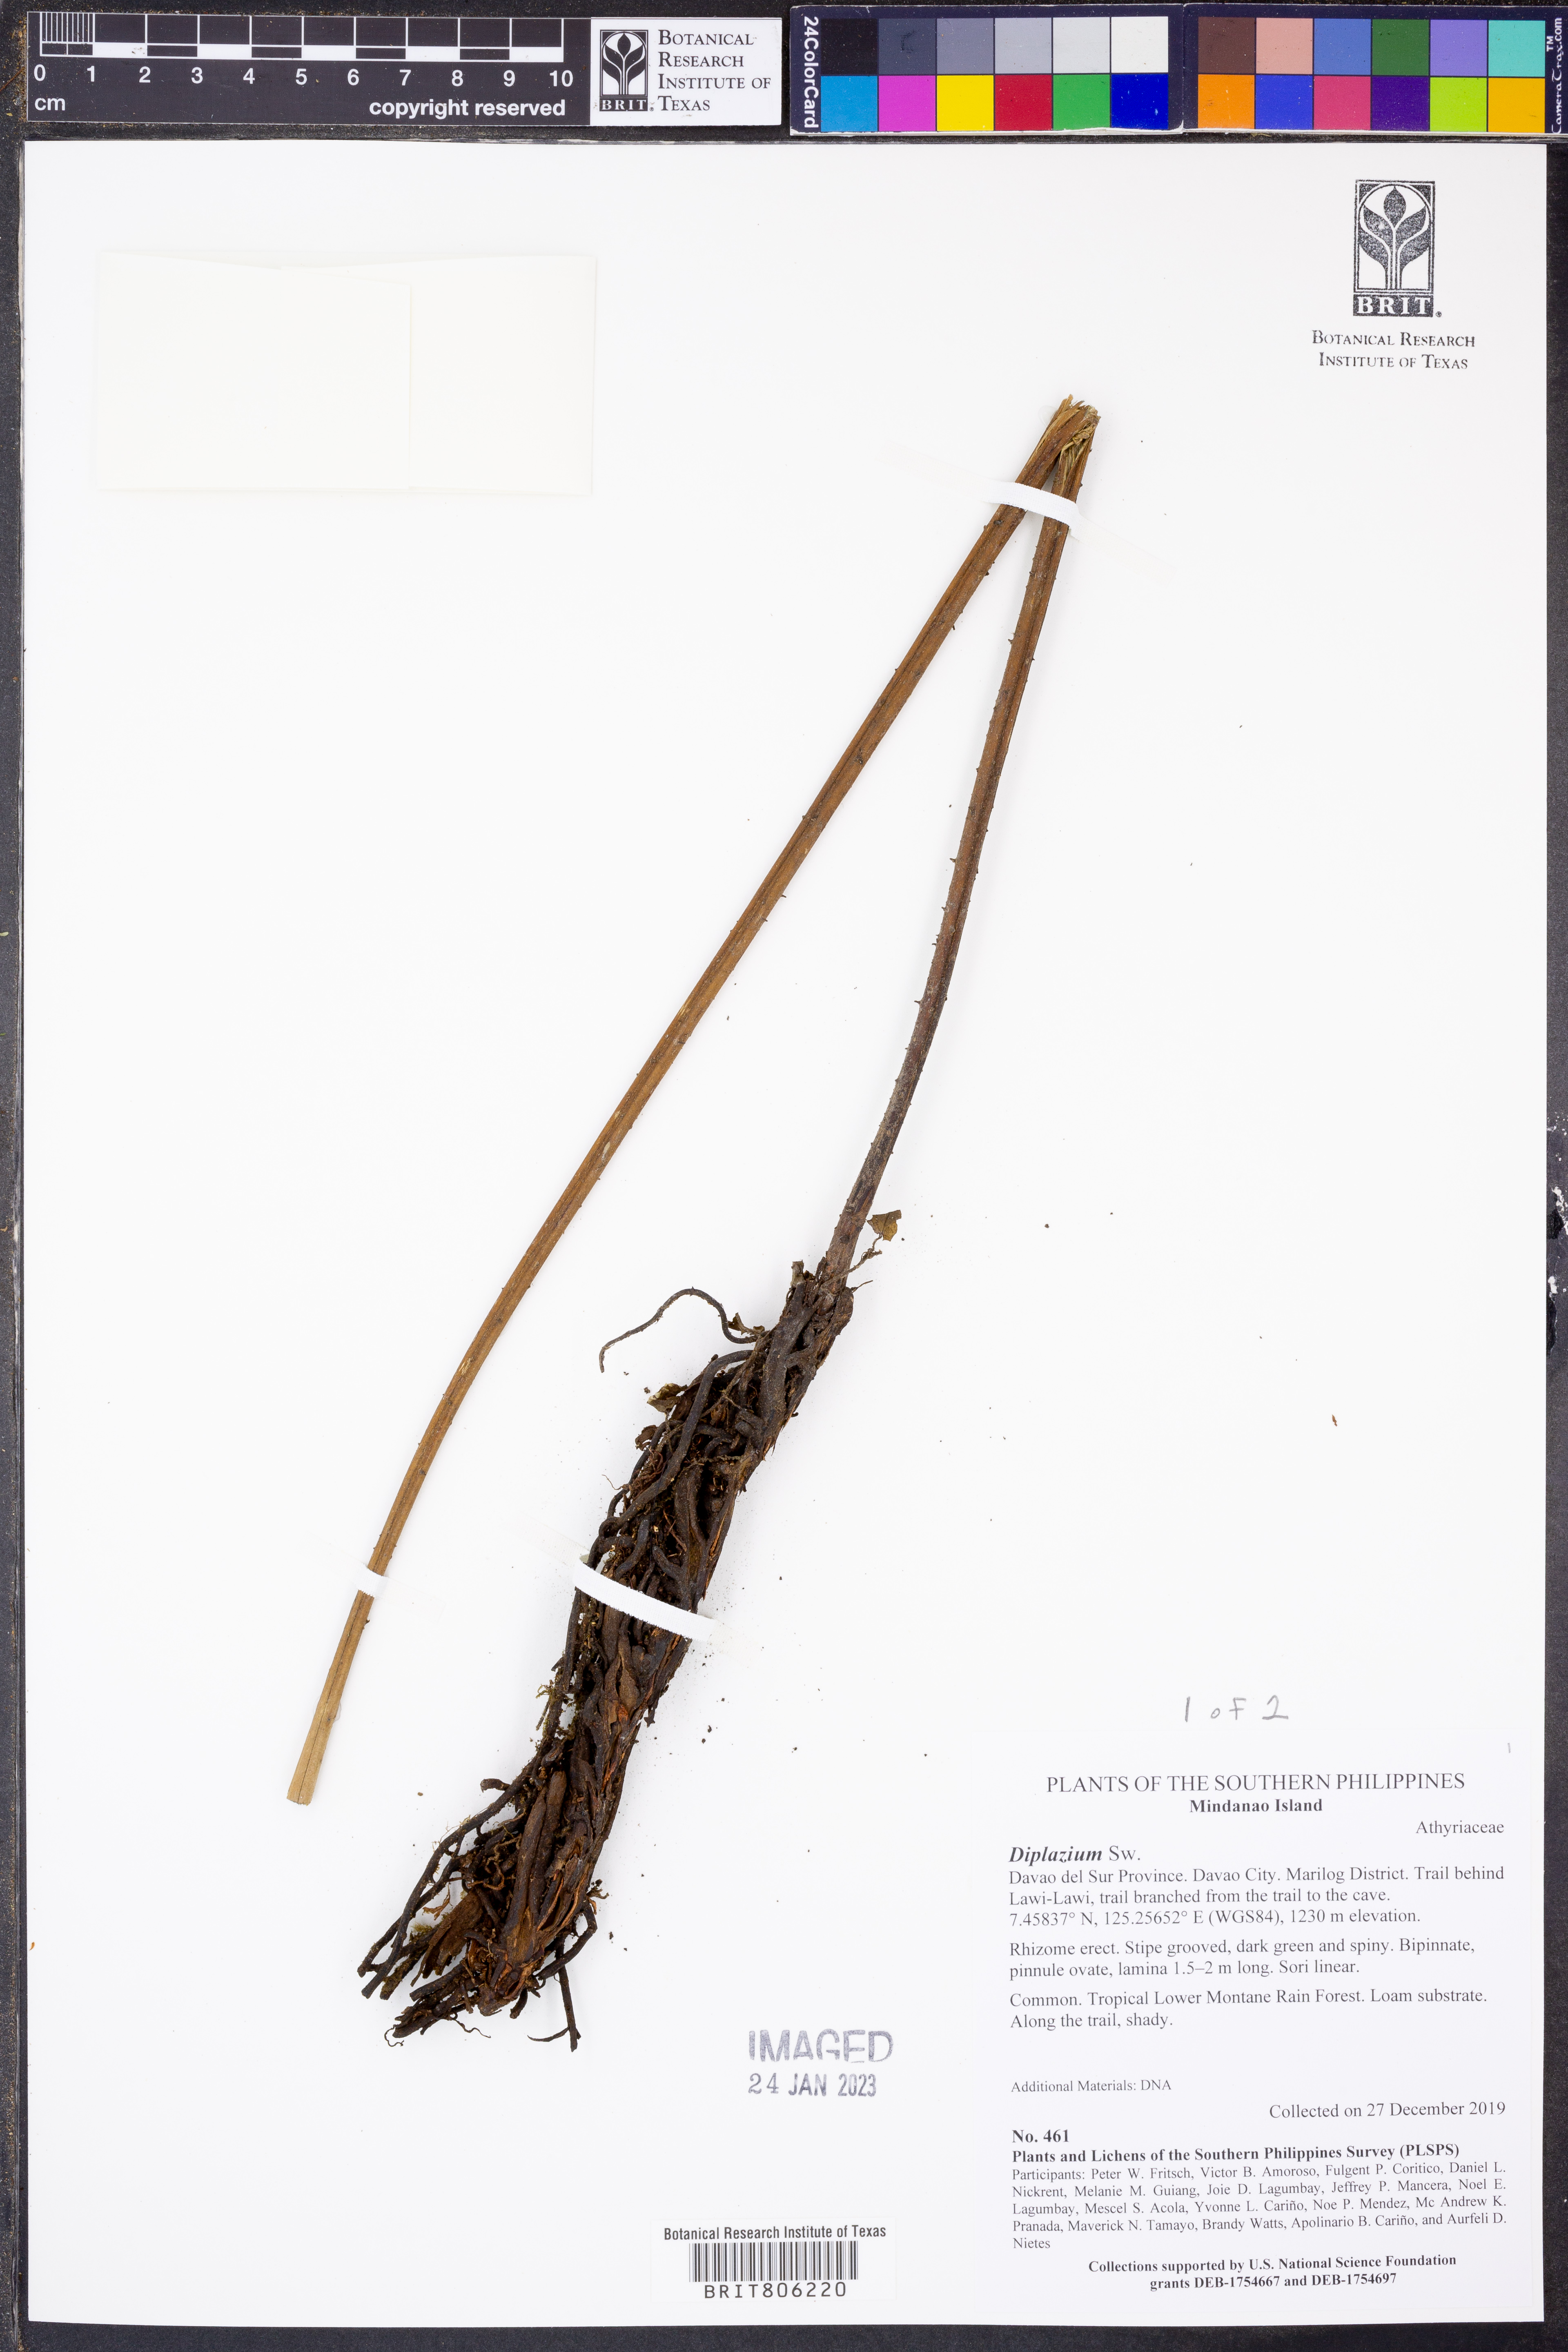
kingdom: Plantae
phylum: Tracheophyta
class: Polypodiopsida
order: Polypodiales
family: Athyriaceae
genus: Diplazium
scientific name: Diplazium
